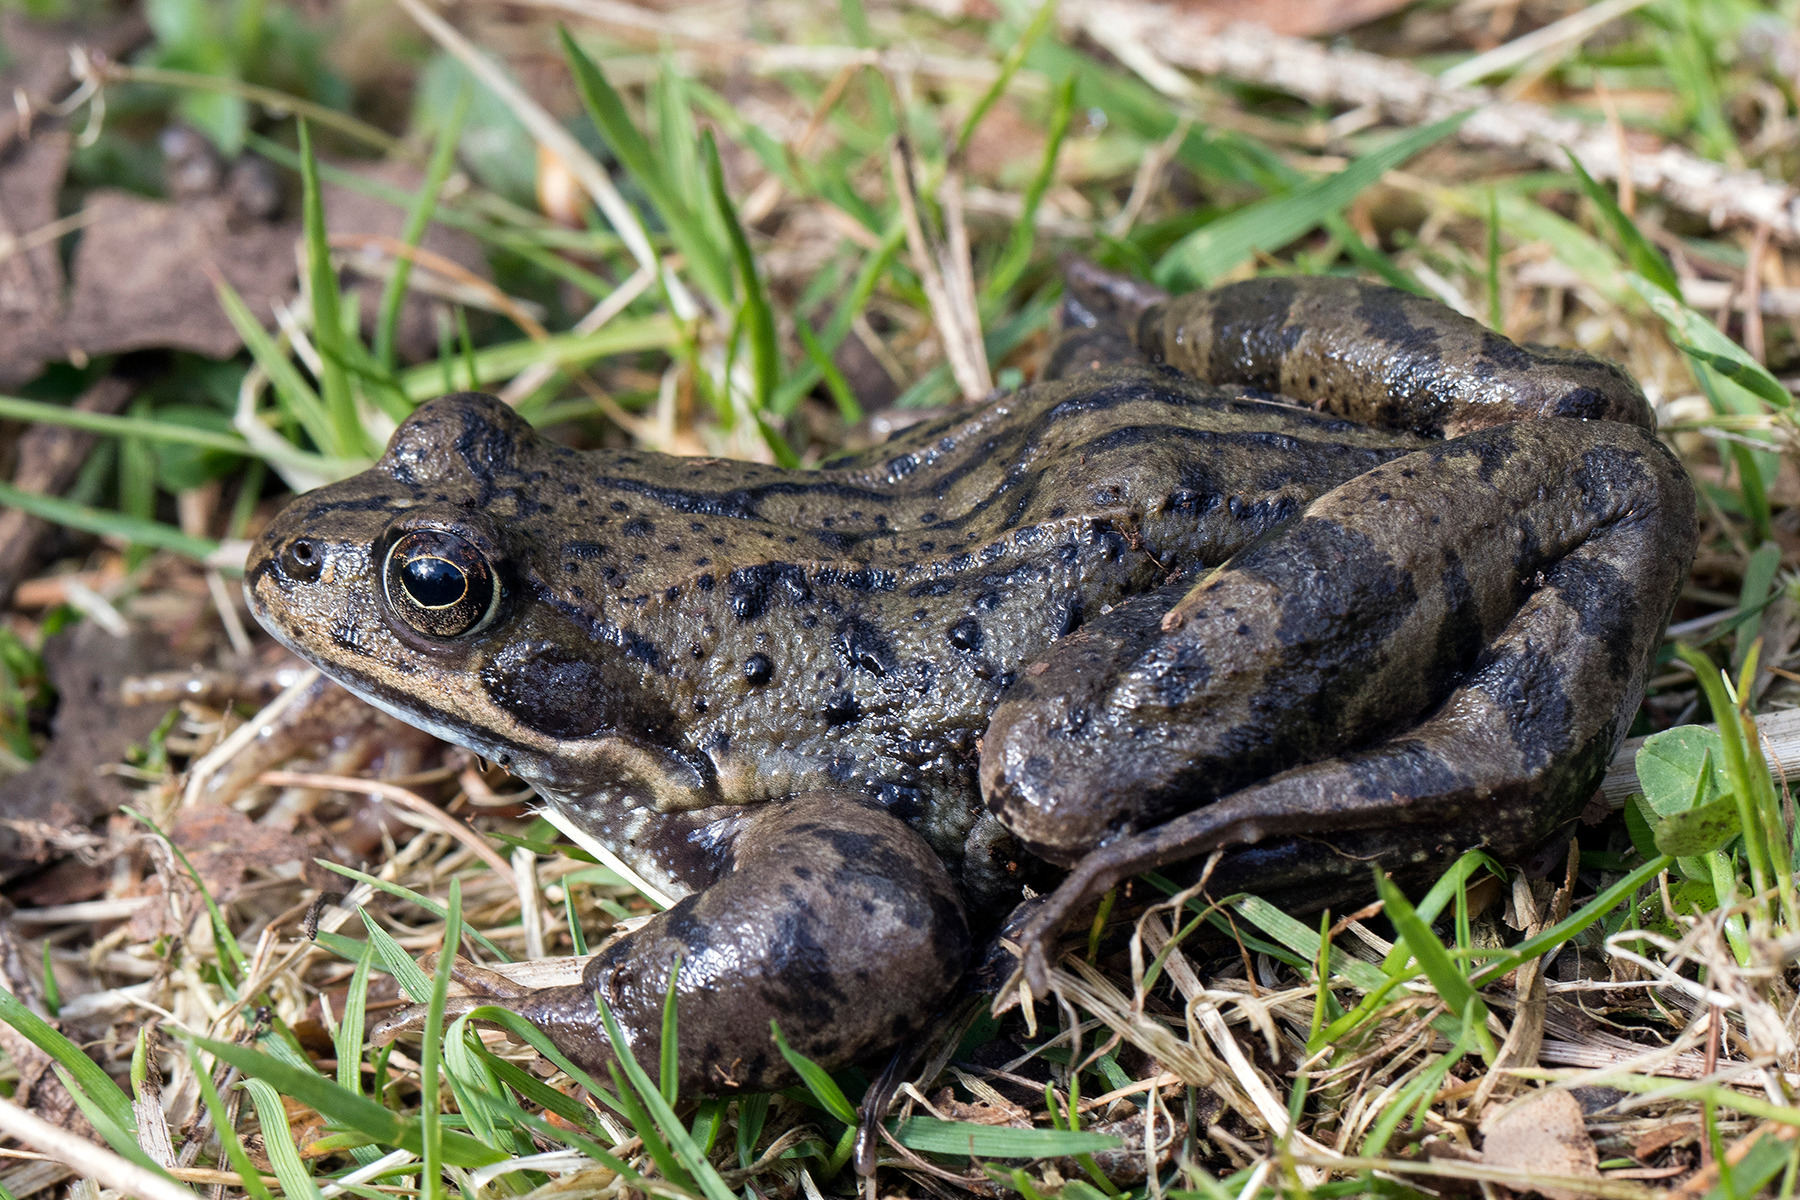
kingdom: Animalia
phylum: Chordata
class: Amphibia
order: Anura
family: Ranidae
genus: Rana
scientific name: Rana temporaria
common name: Butsnudet frø
